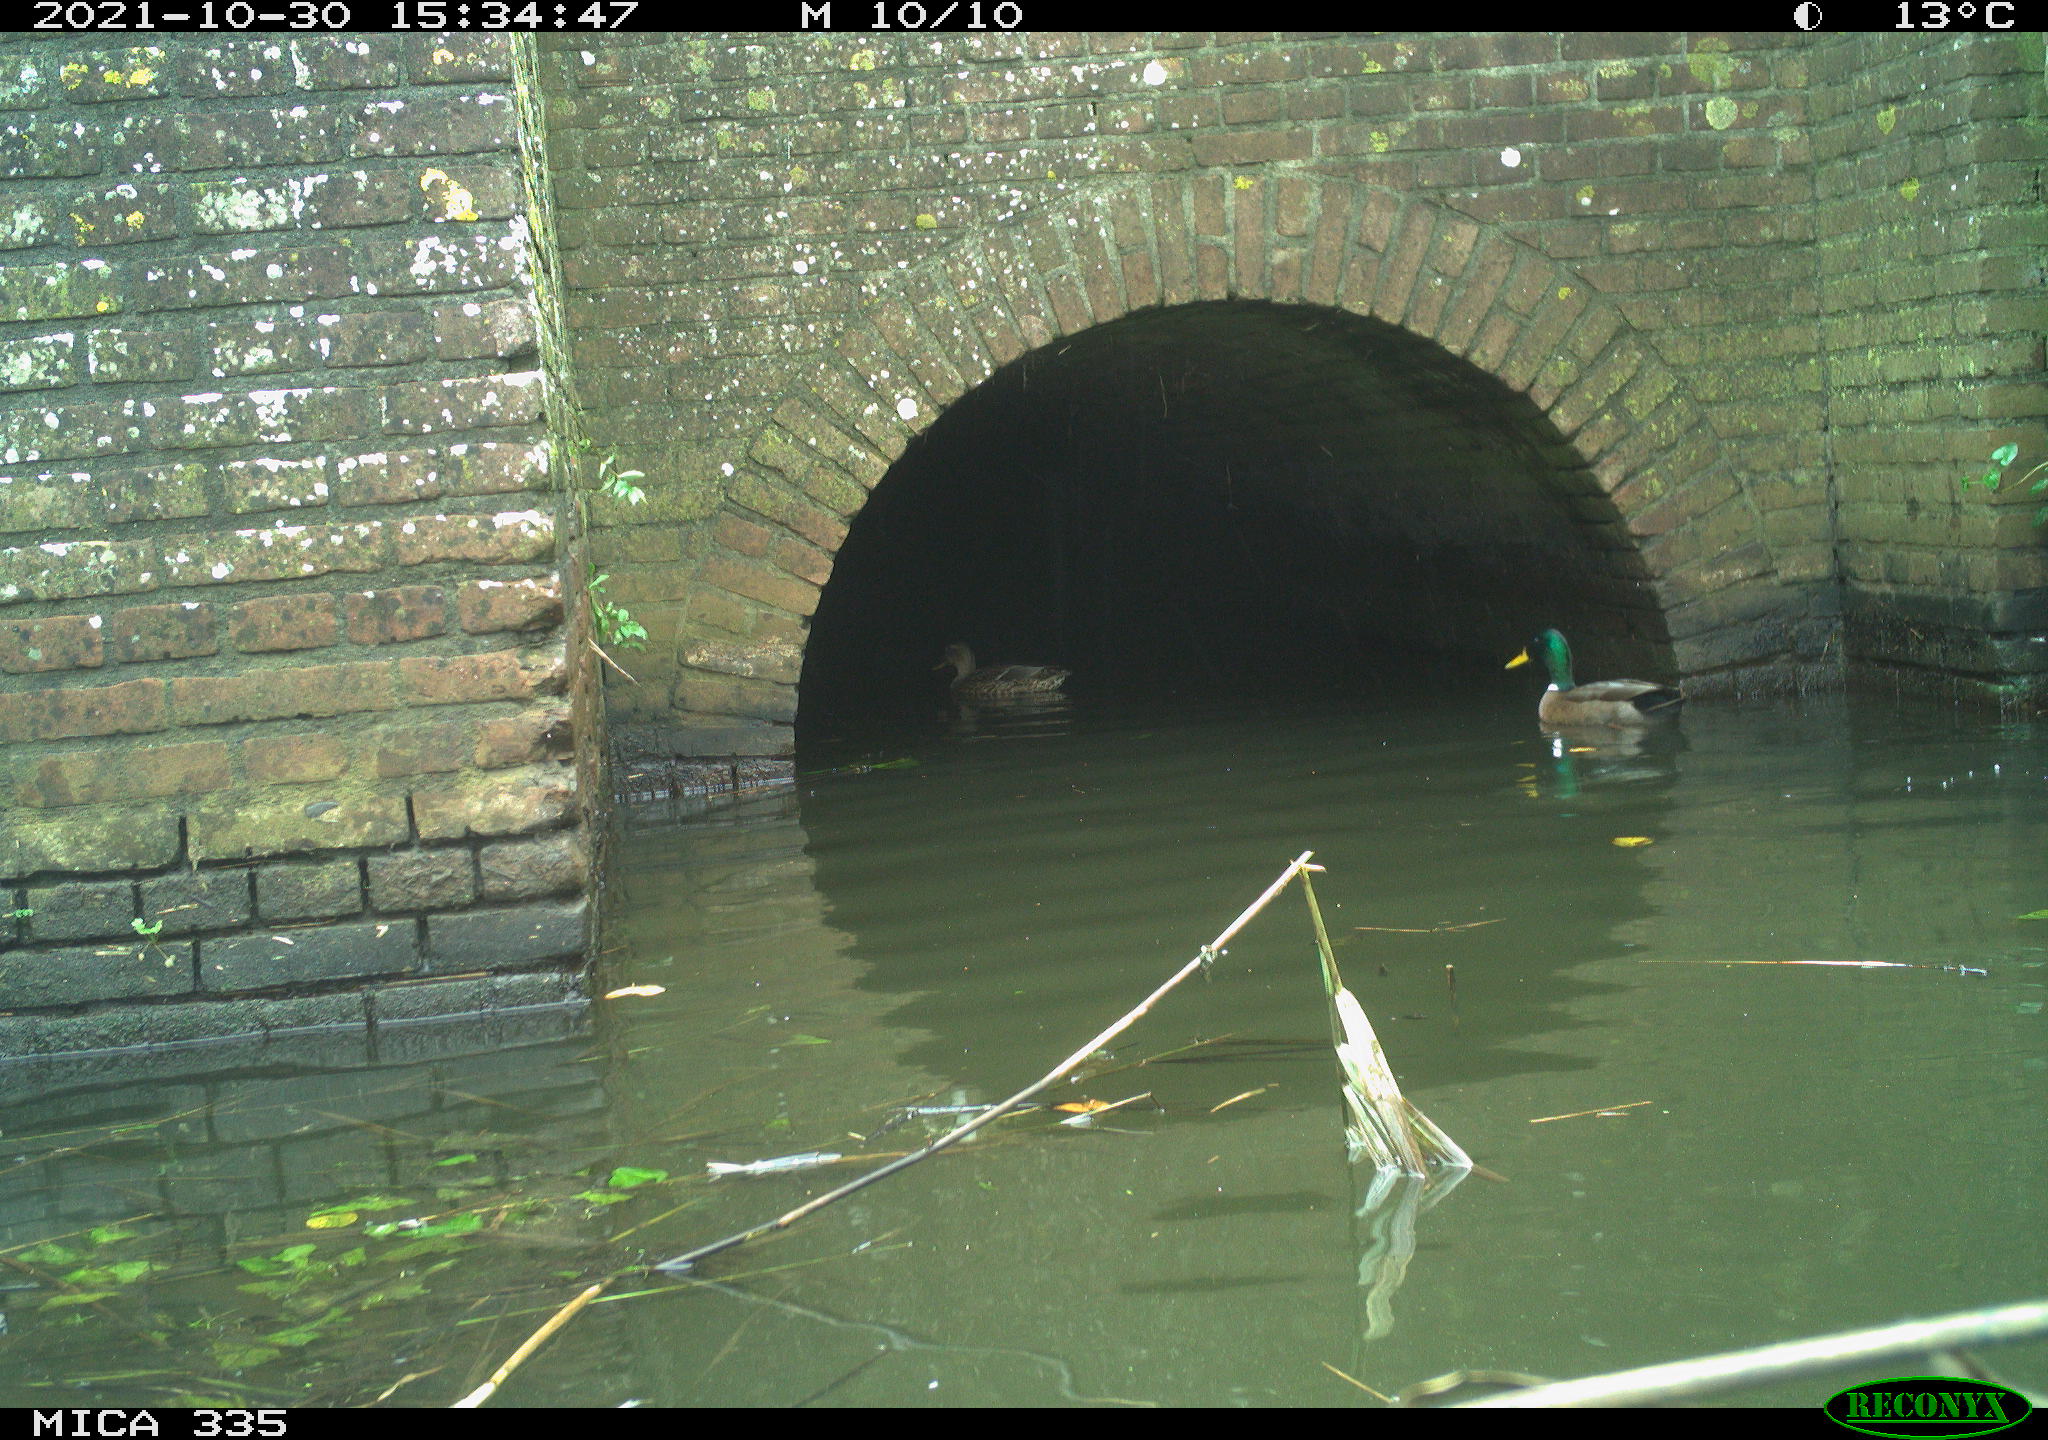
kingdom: Animalia
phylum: Chordata
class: Aves
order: Anseriformes
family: Anatidae
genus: Anas
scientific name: Anas platyrhynchos
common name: Mallard
